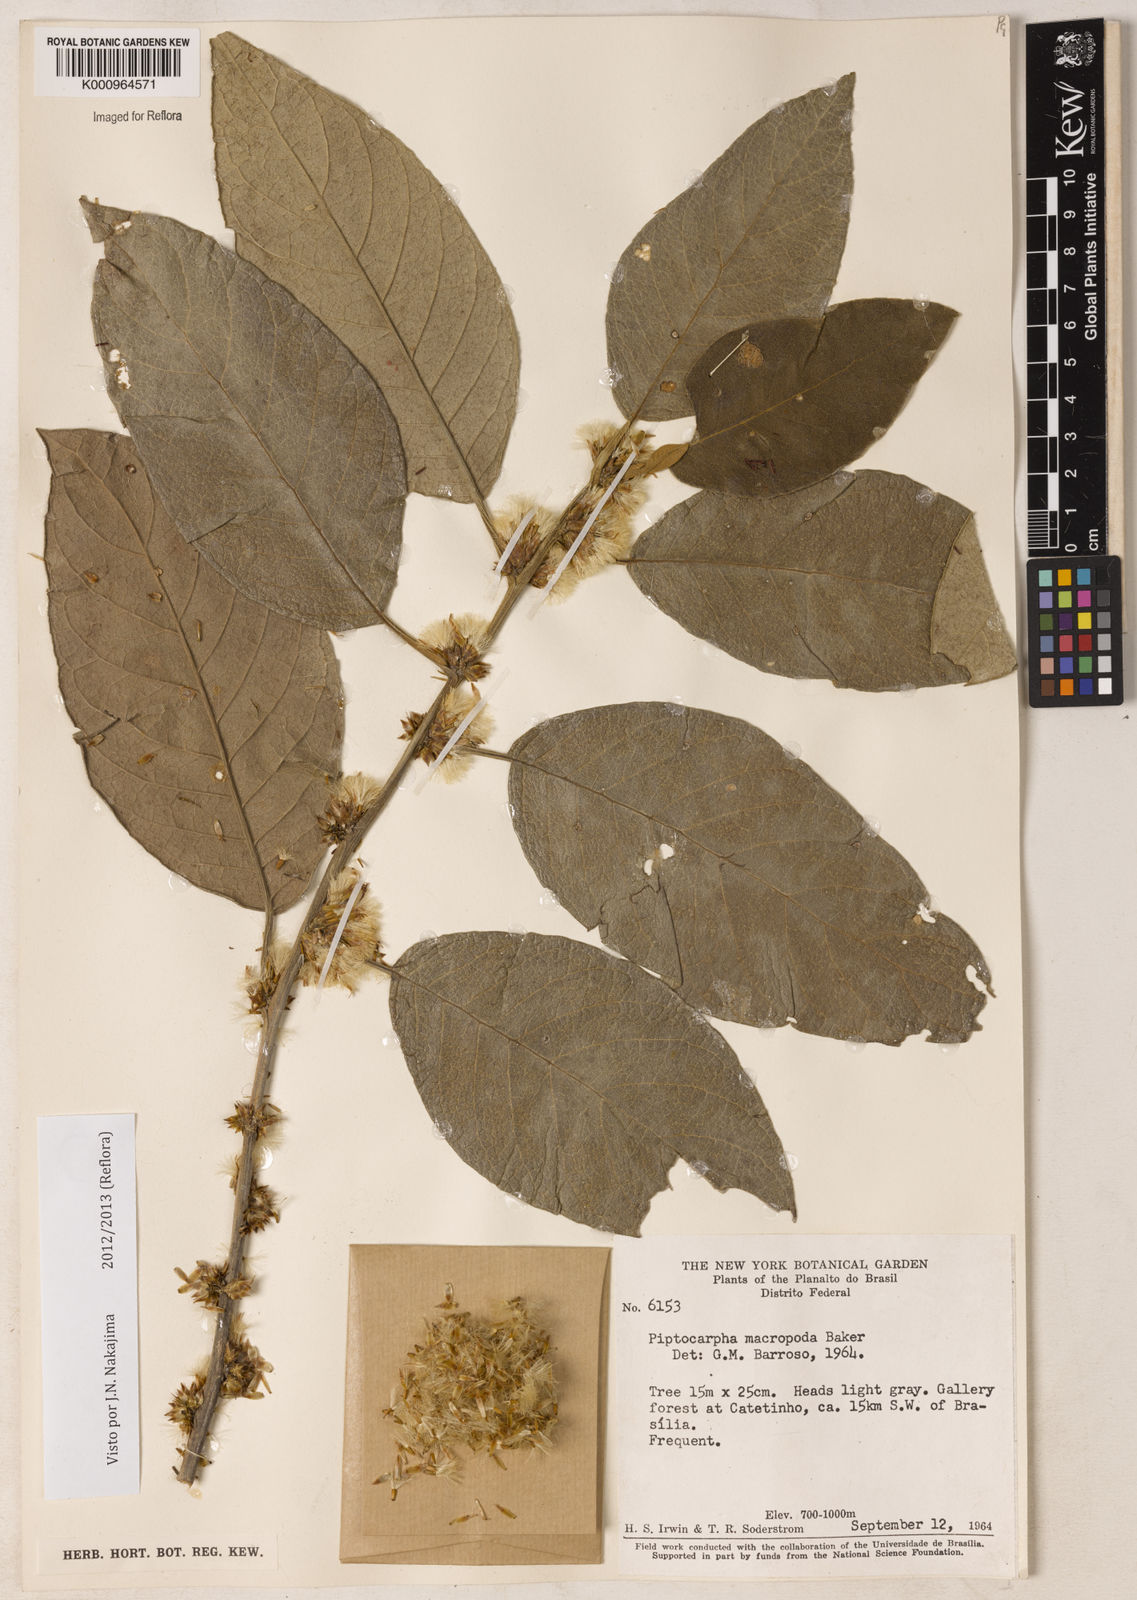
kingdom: Plantae
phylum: Tracheophyta
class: Magnoliopsida
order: Asterales
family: Asteraceae
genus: Piptocarpha
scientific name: Piptocarpha macropoda
